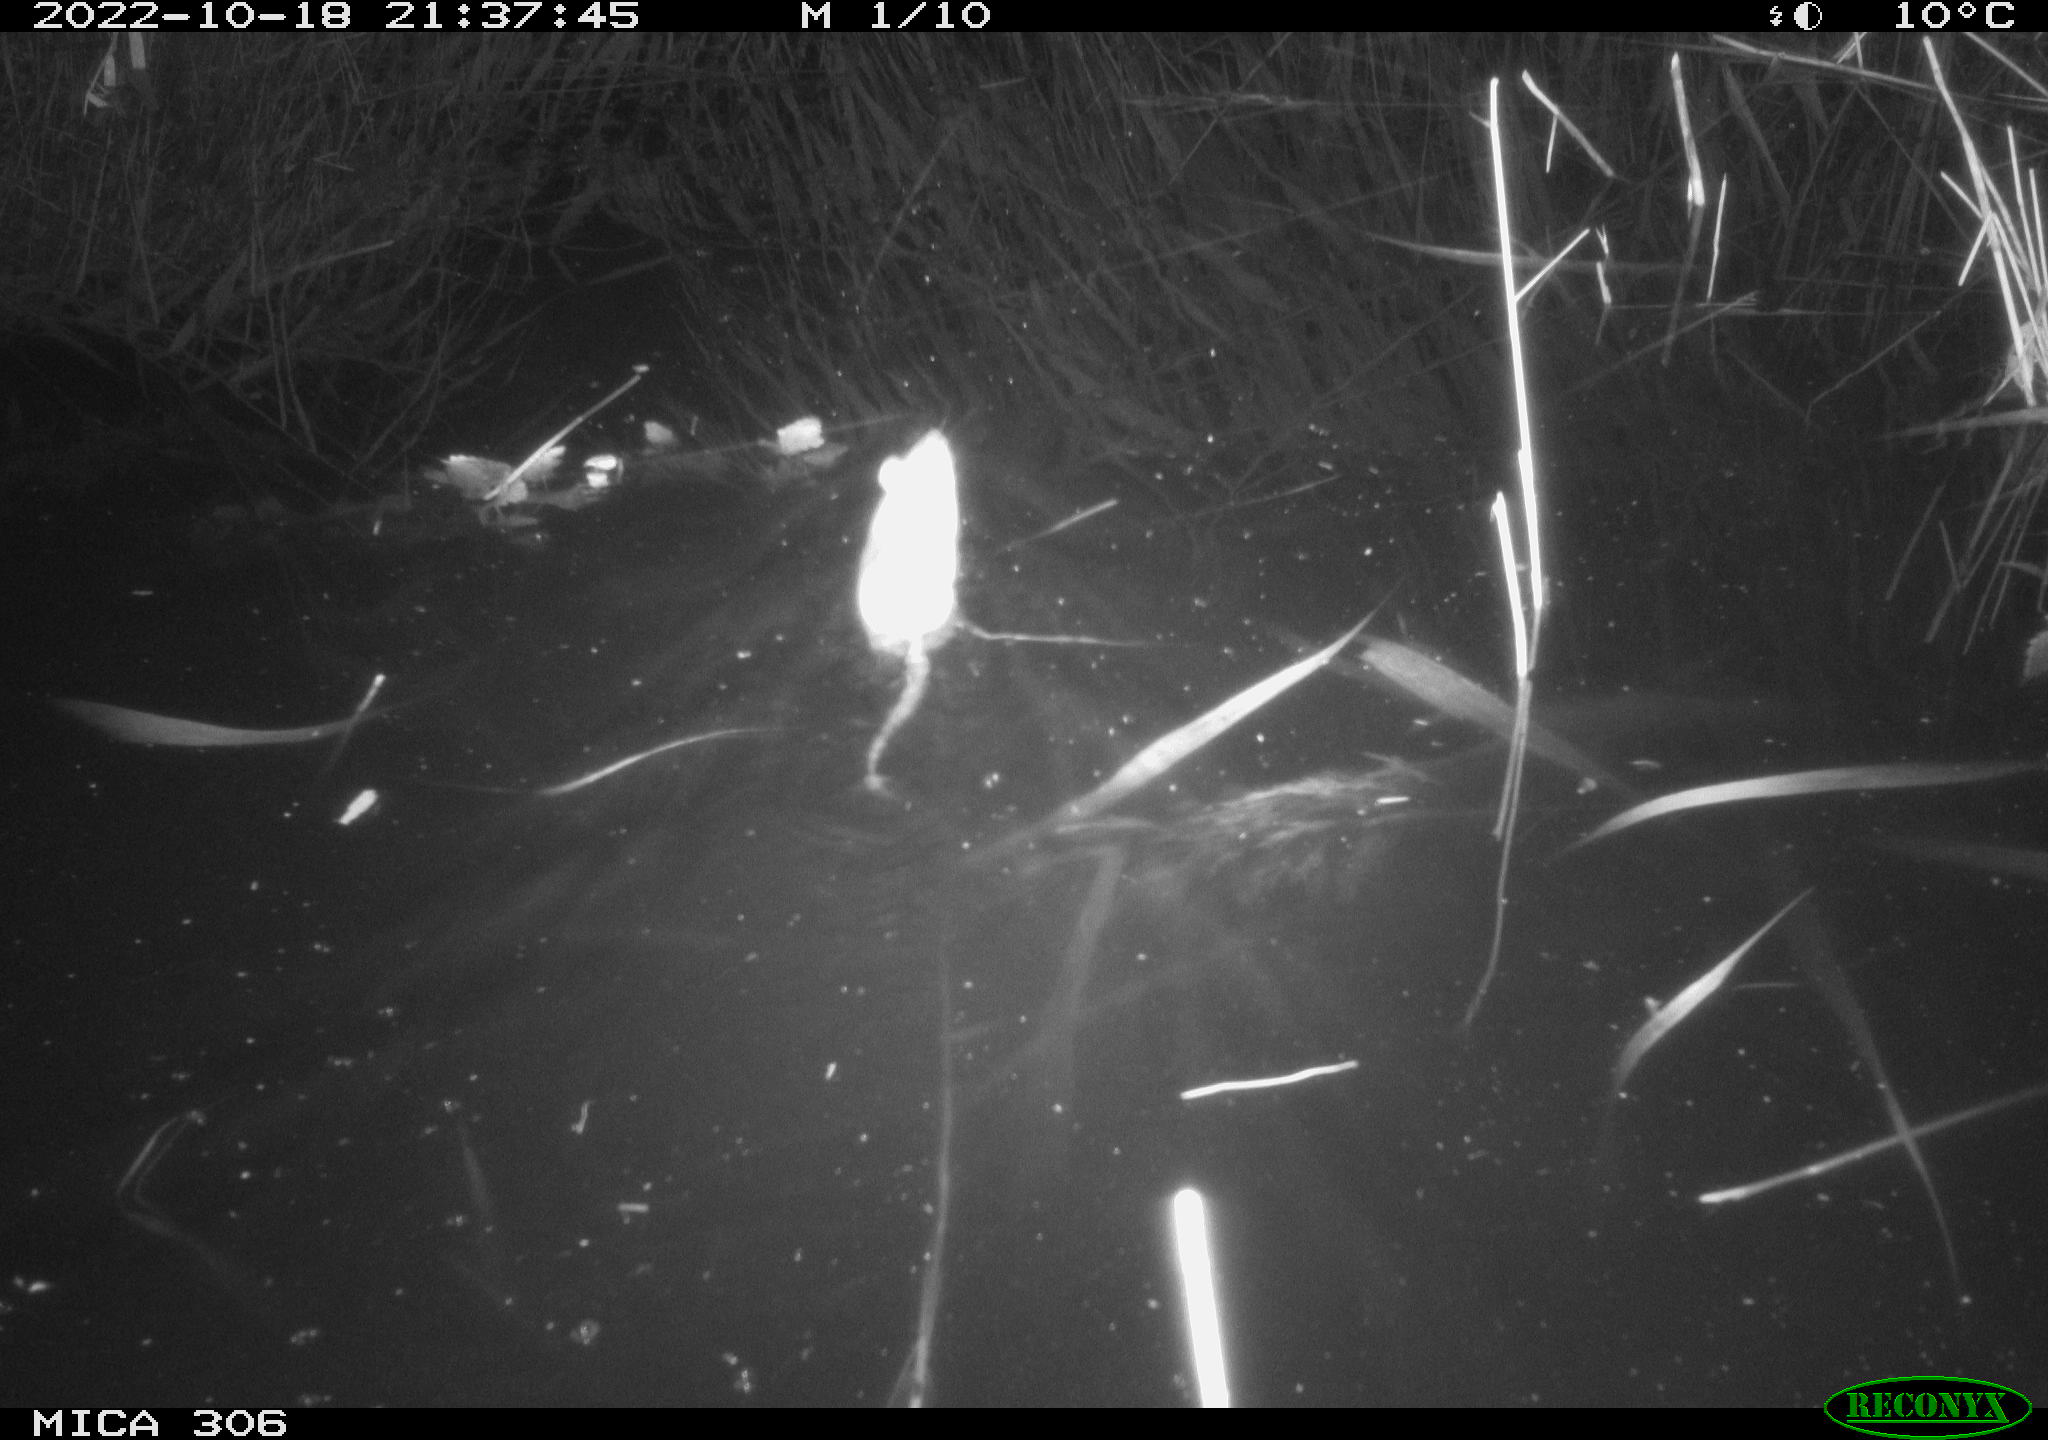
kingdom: Animalia
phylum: Chordata
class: Mammalia
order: Rodentia
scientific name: Rodentia
